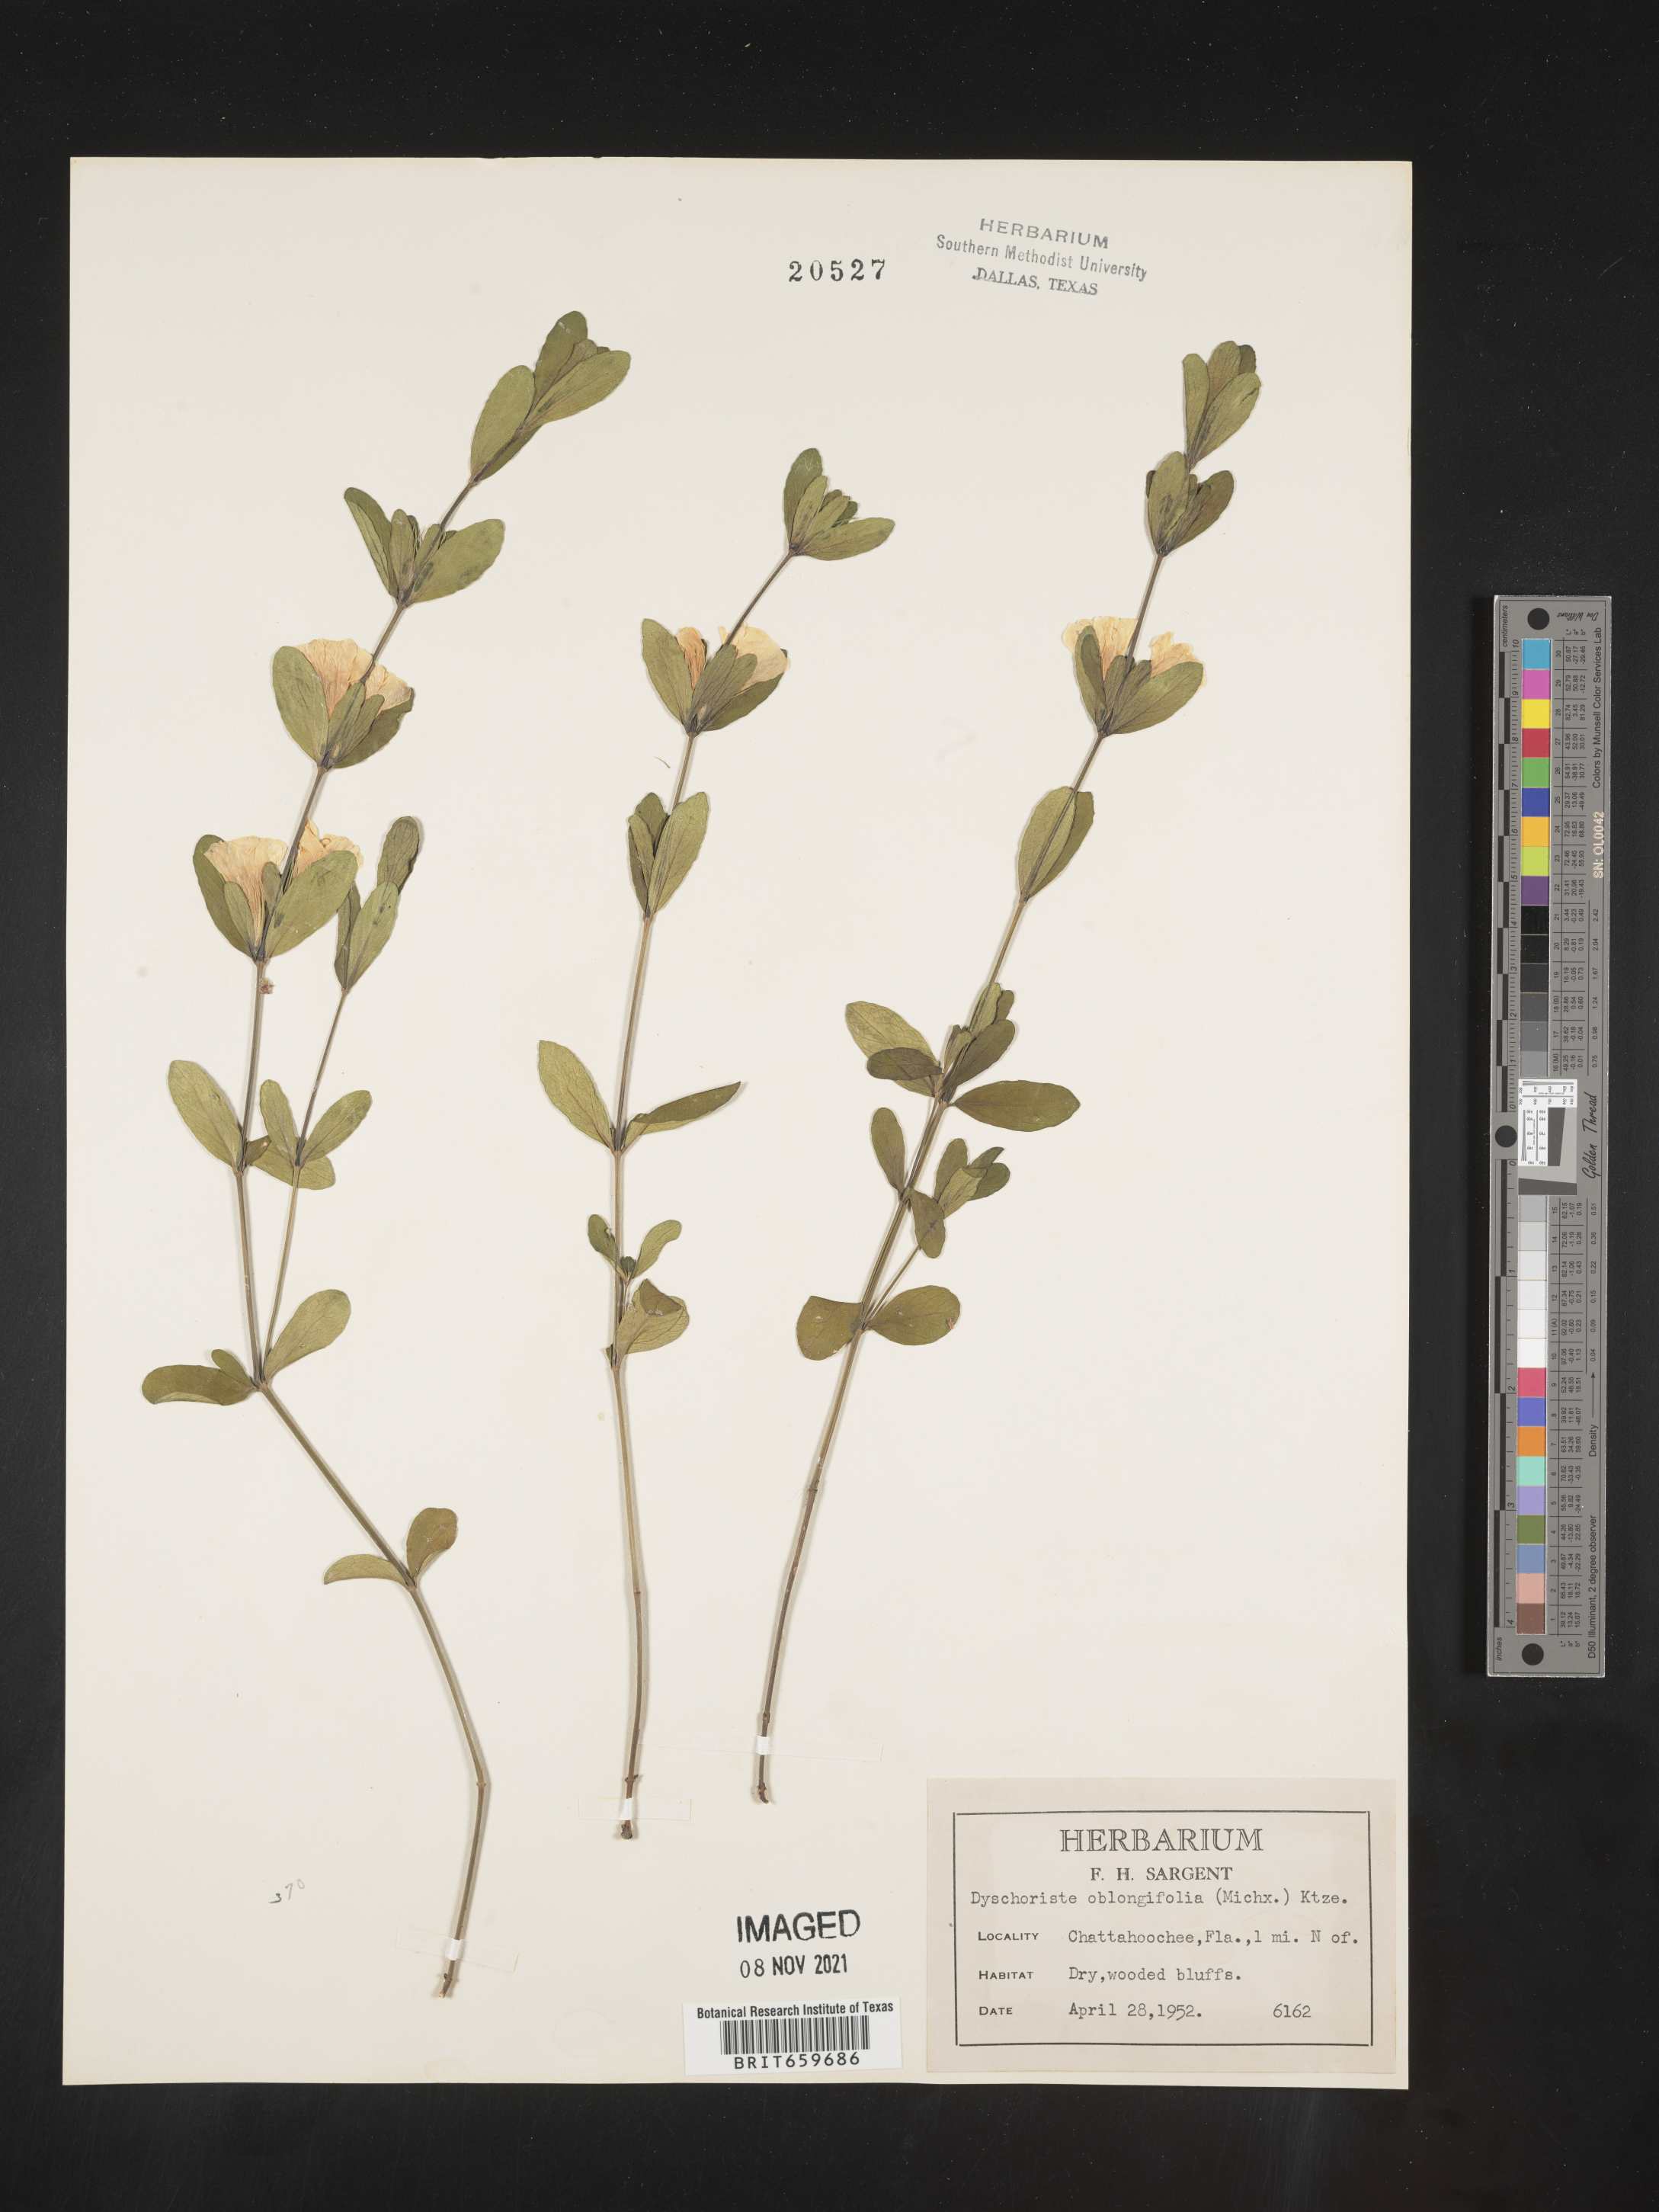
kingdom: Plantae
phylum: Tracheophyta
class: Magnoliopsida
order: Lamiales
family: Acanthaceae
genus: Dyschoriste
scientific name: Dyschoriste oblongifolia
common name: Blue twinflower
